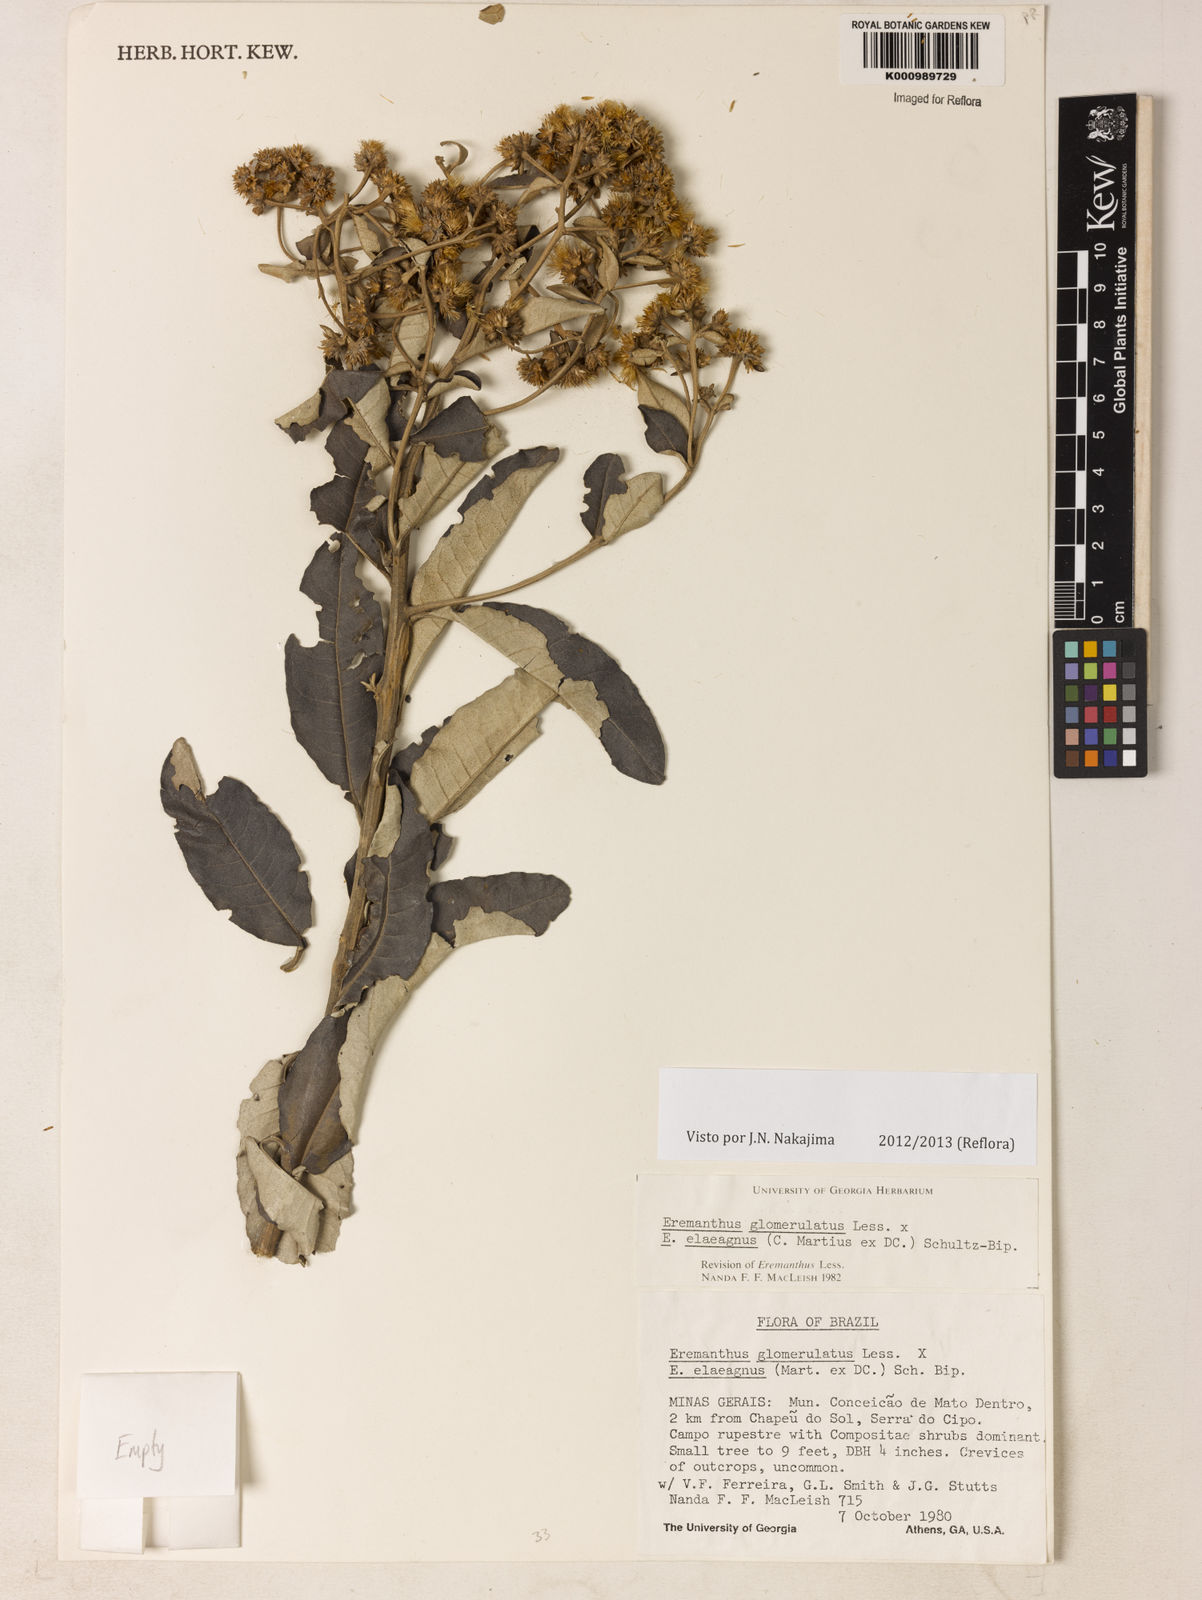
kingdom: Plantae
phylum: Tracheophyta
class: Magnoliopsida
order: Asterales
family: Asteraceae
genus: Eremanthus
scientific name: Eremanthus glomerulatus
